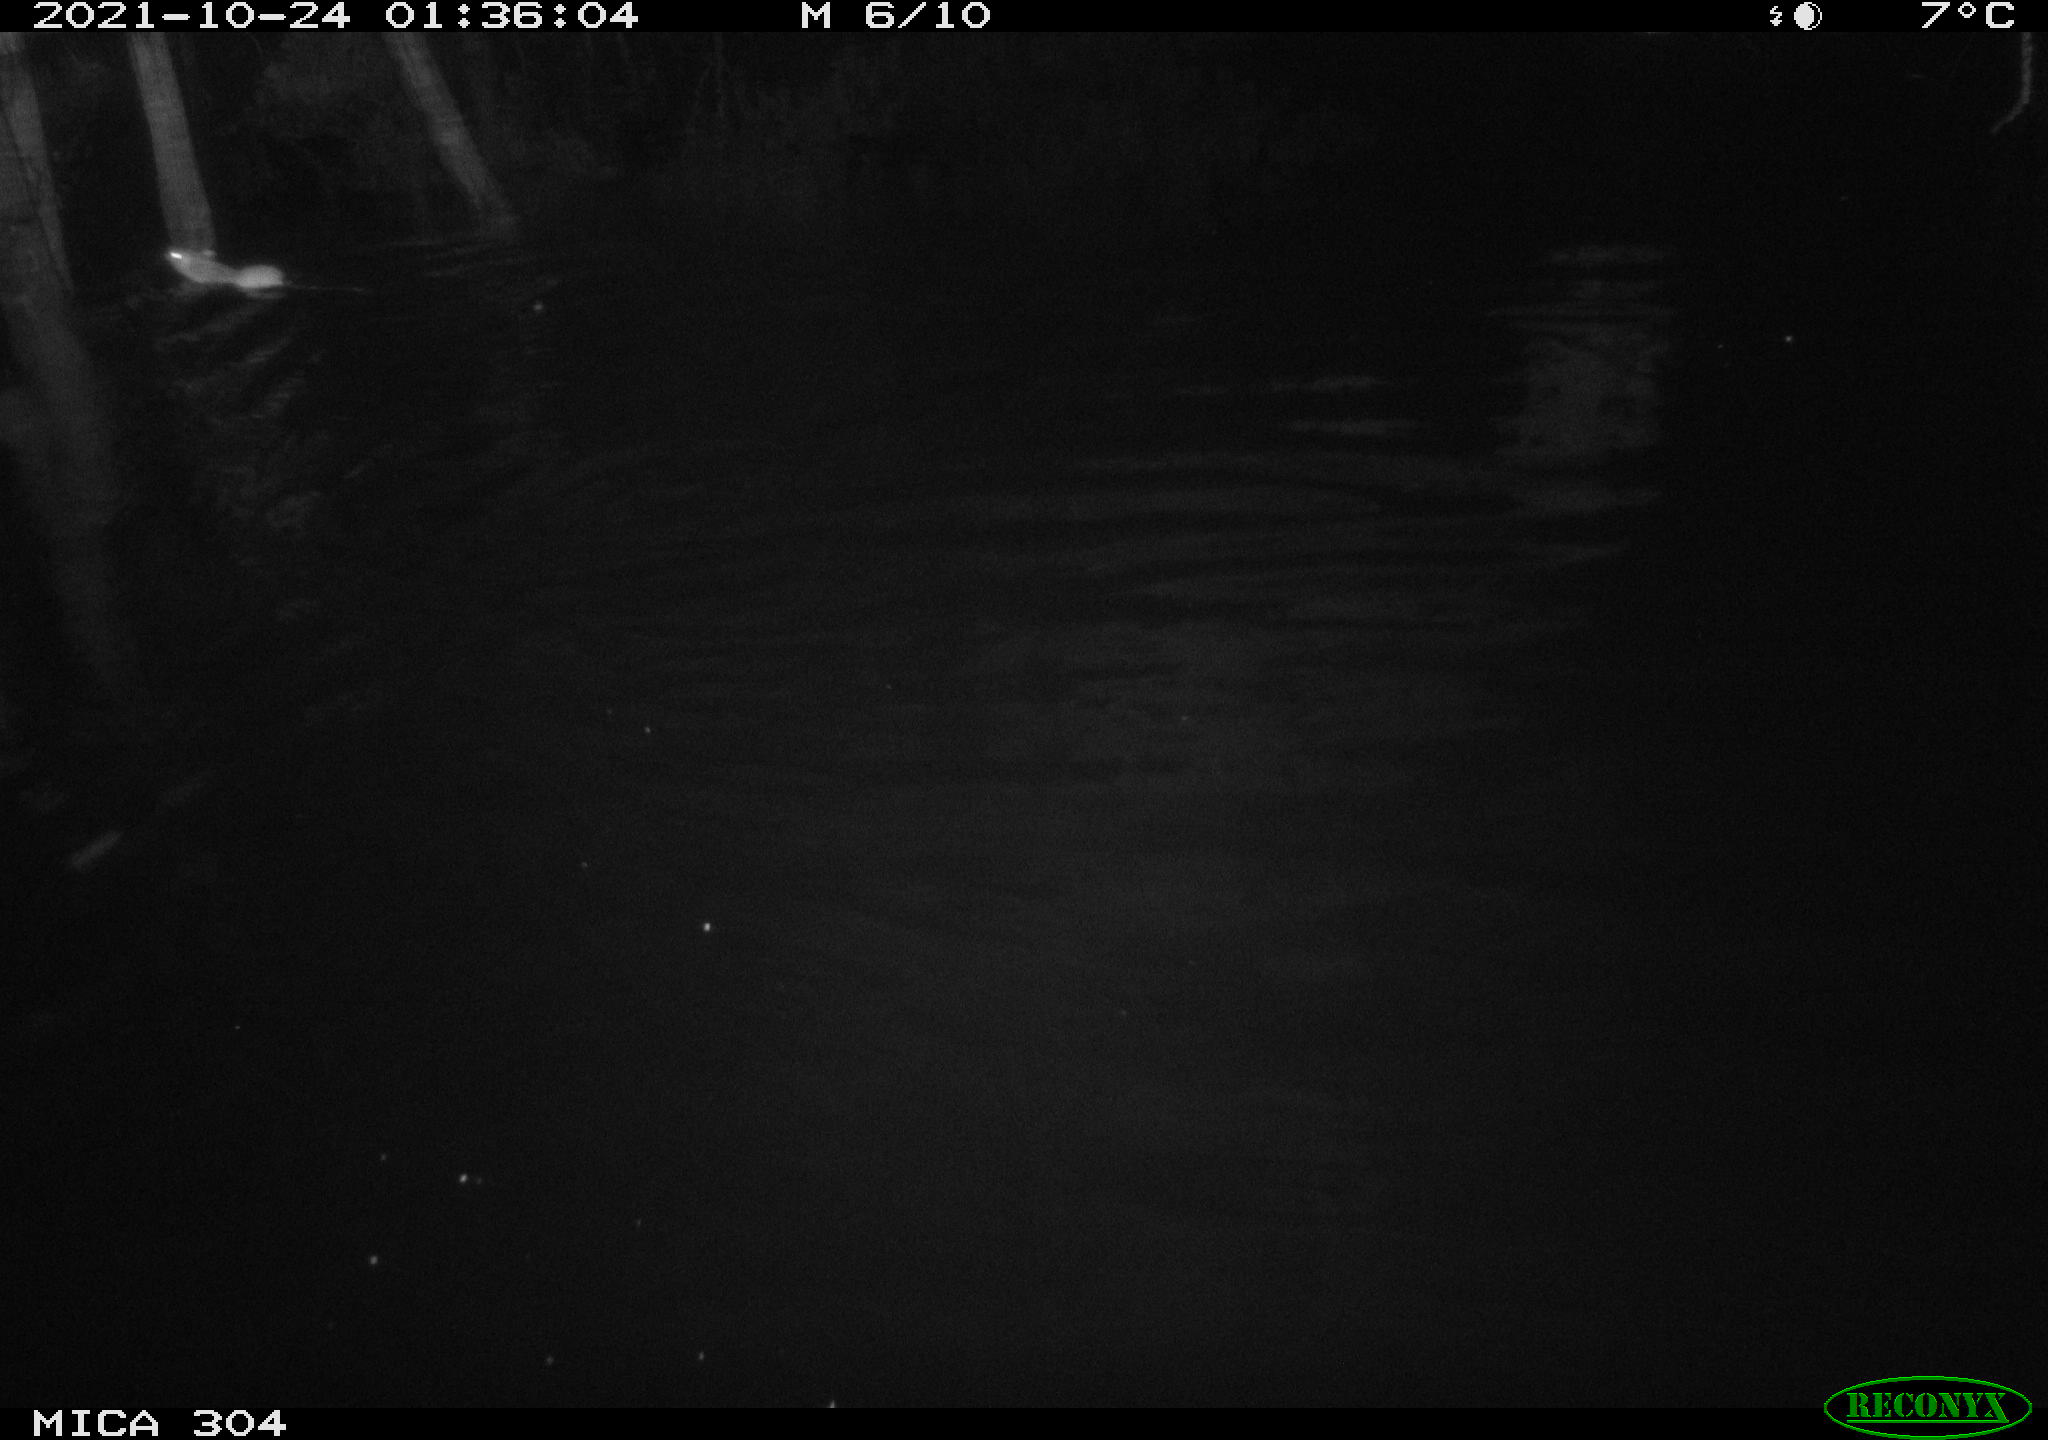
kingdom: Animalia
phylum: Chordata
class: Mammalia
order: Rodentia
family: Muridae
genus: Rattus
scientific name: Rattus norvegicus
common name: Brown rat
